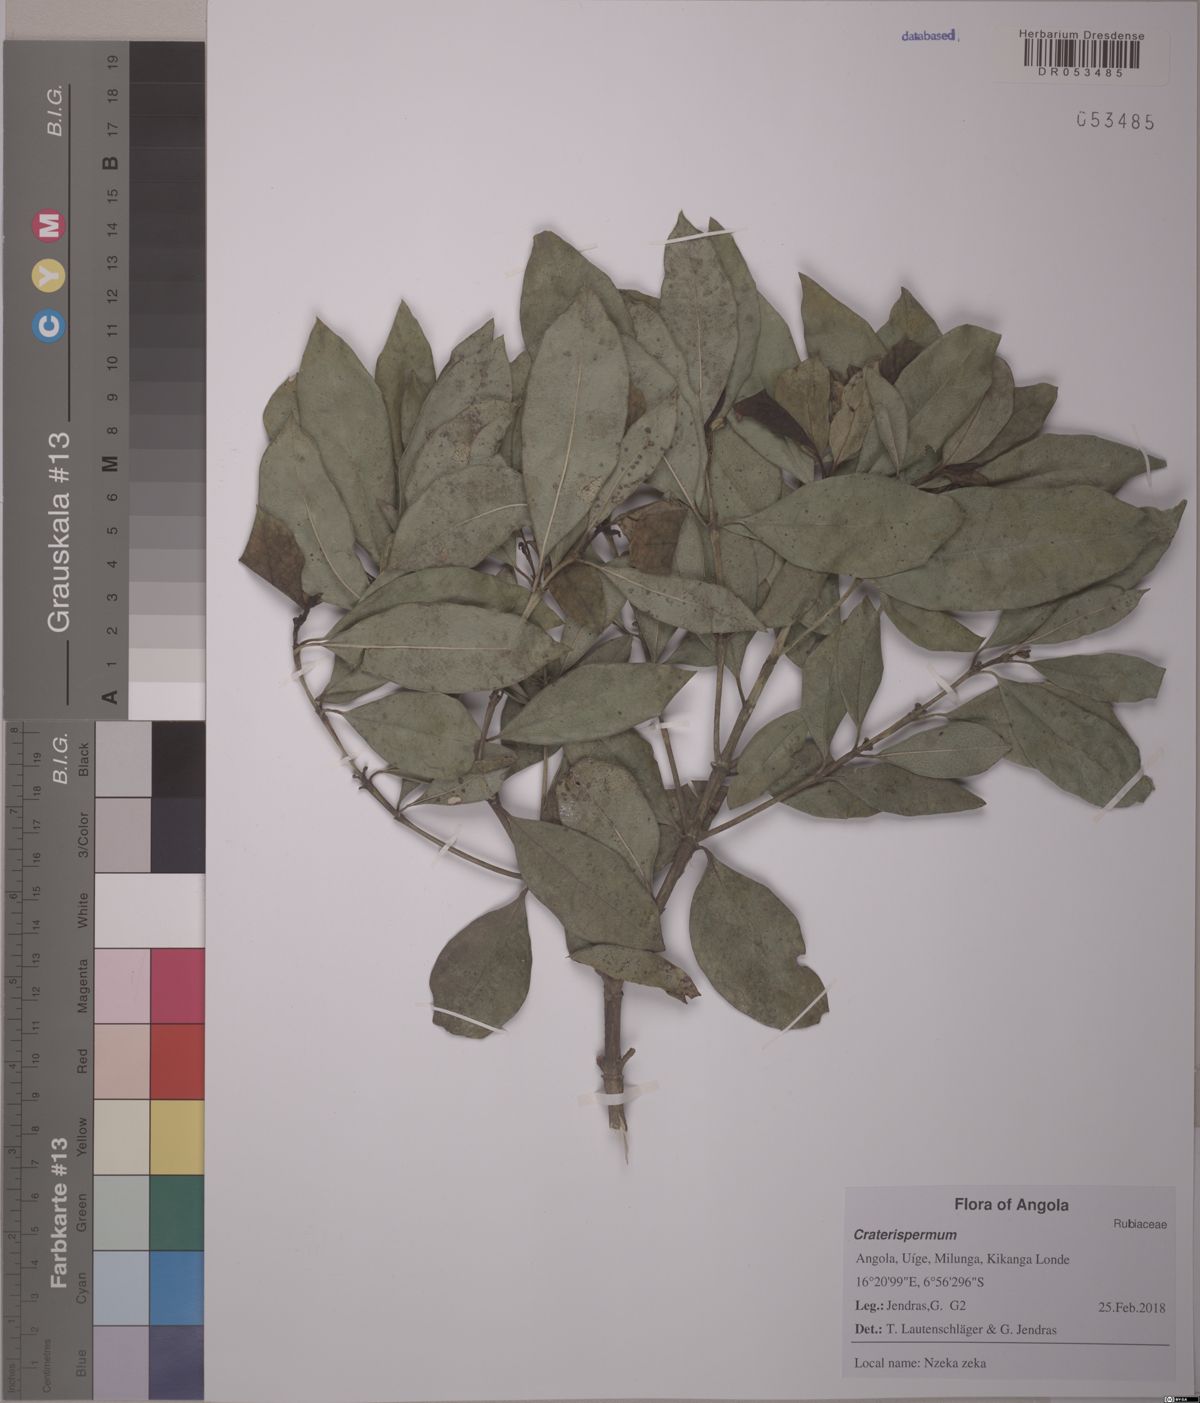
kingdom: Plantae
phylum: Tracheophyta
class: Magnoliopsida
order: Gentianales
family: Rubiaceae
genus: Craterispermum
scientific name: Craterispermum
